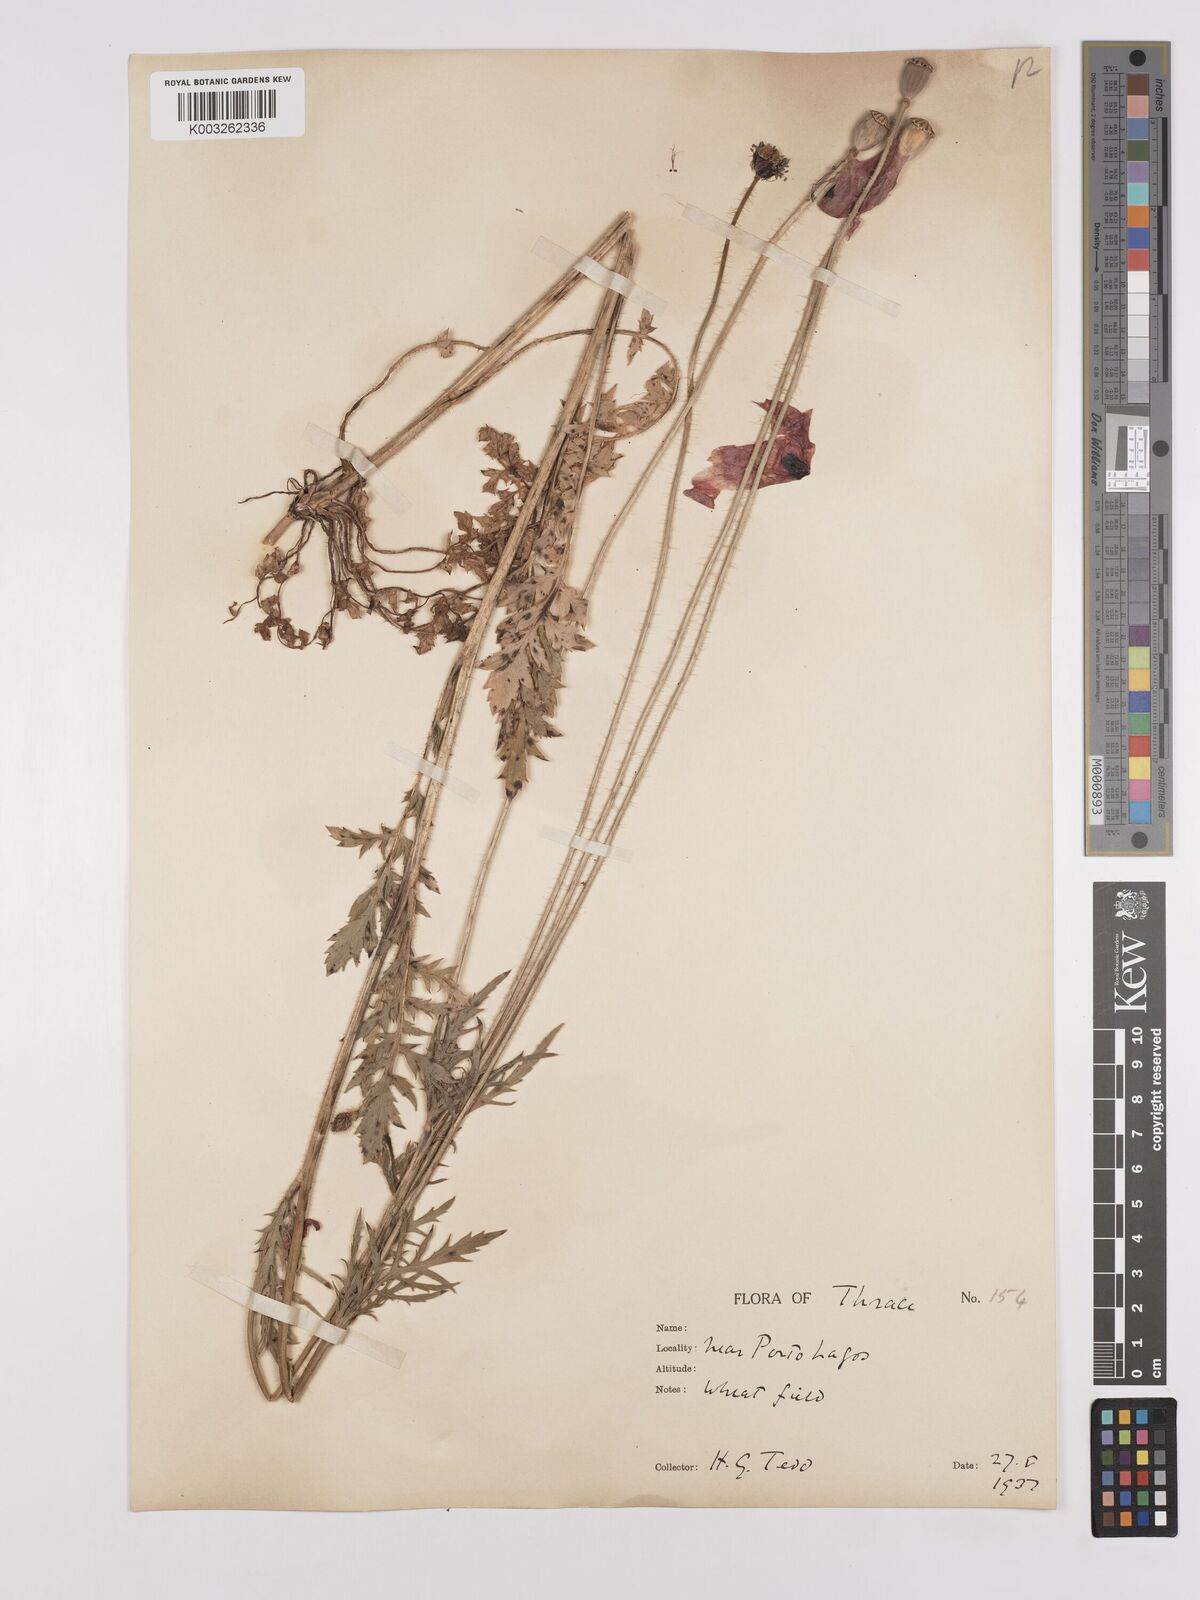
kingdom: Plantae
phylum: Tracheophyta
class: Magnoliopsida
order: Ranunculales
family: Papaveraceae
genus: Papaver
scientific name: Papaver rhoeas
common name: Corn poppy
